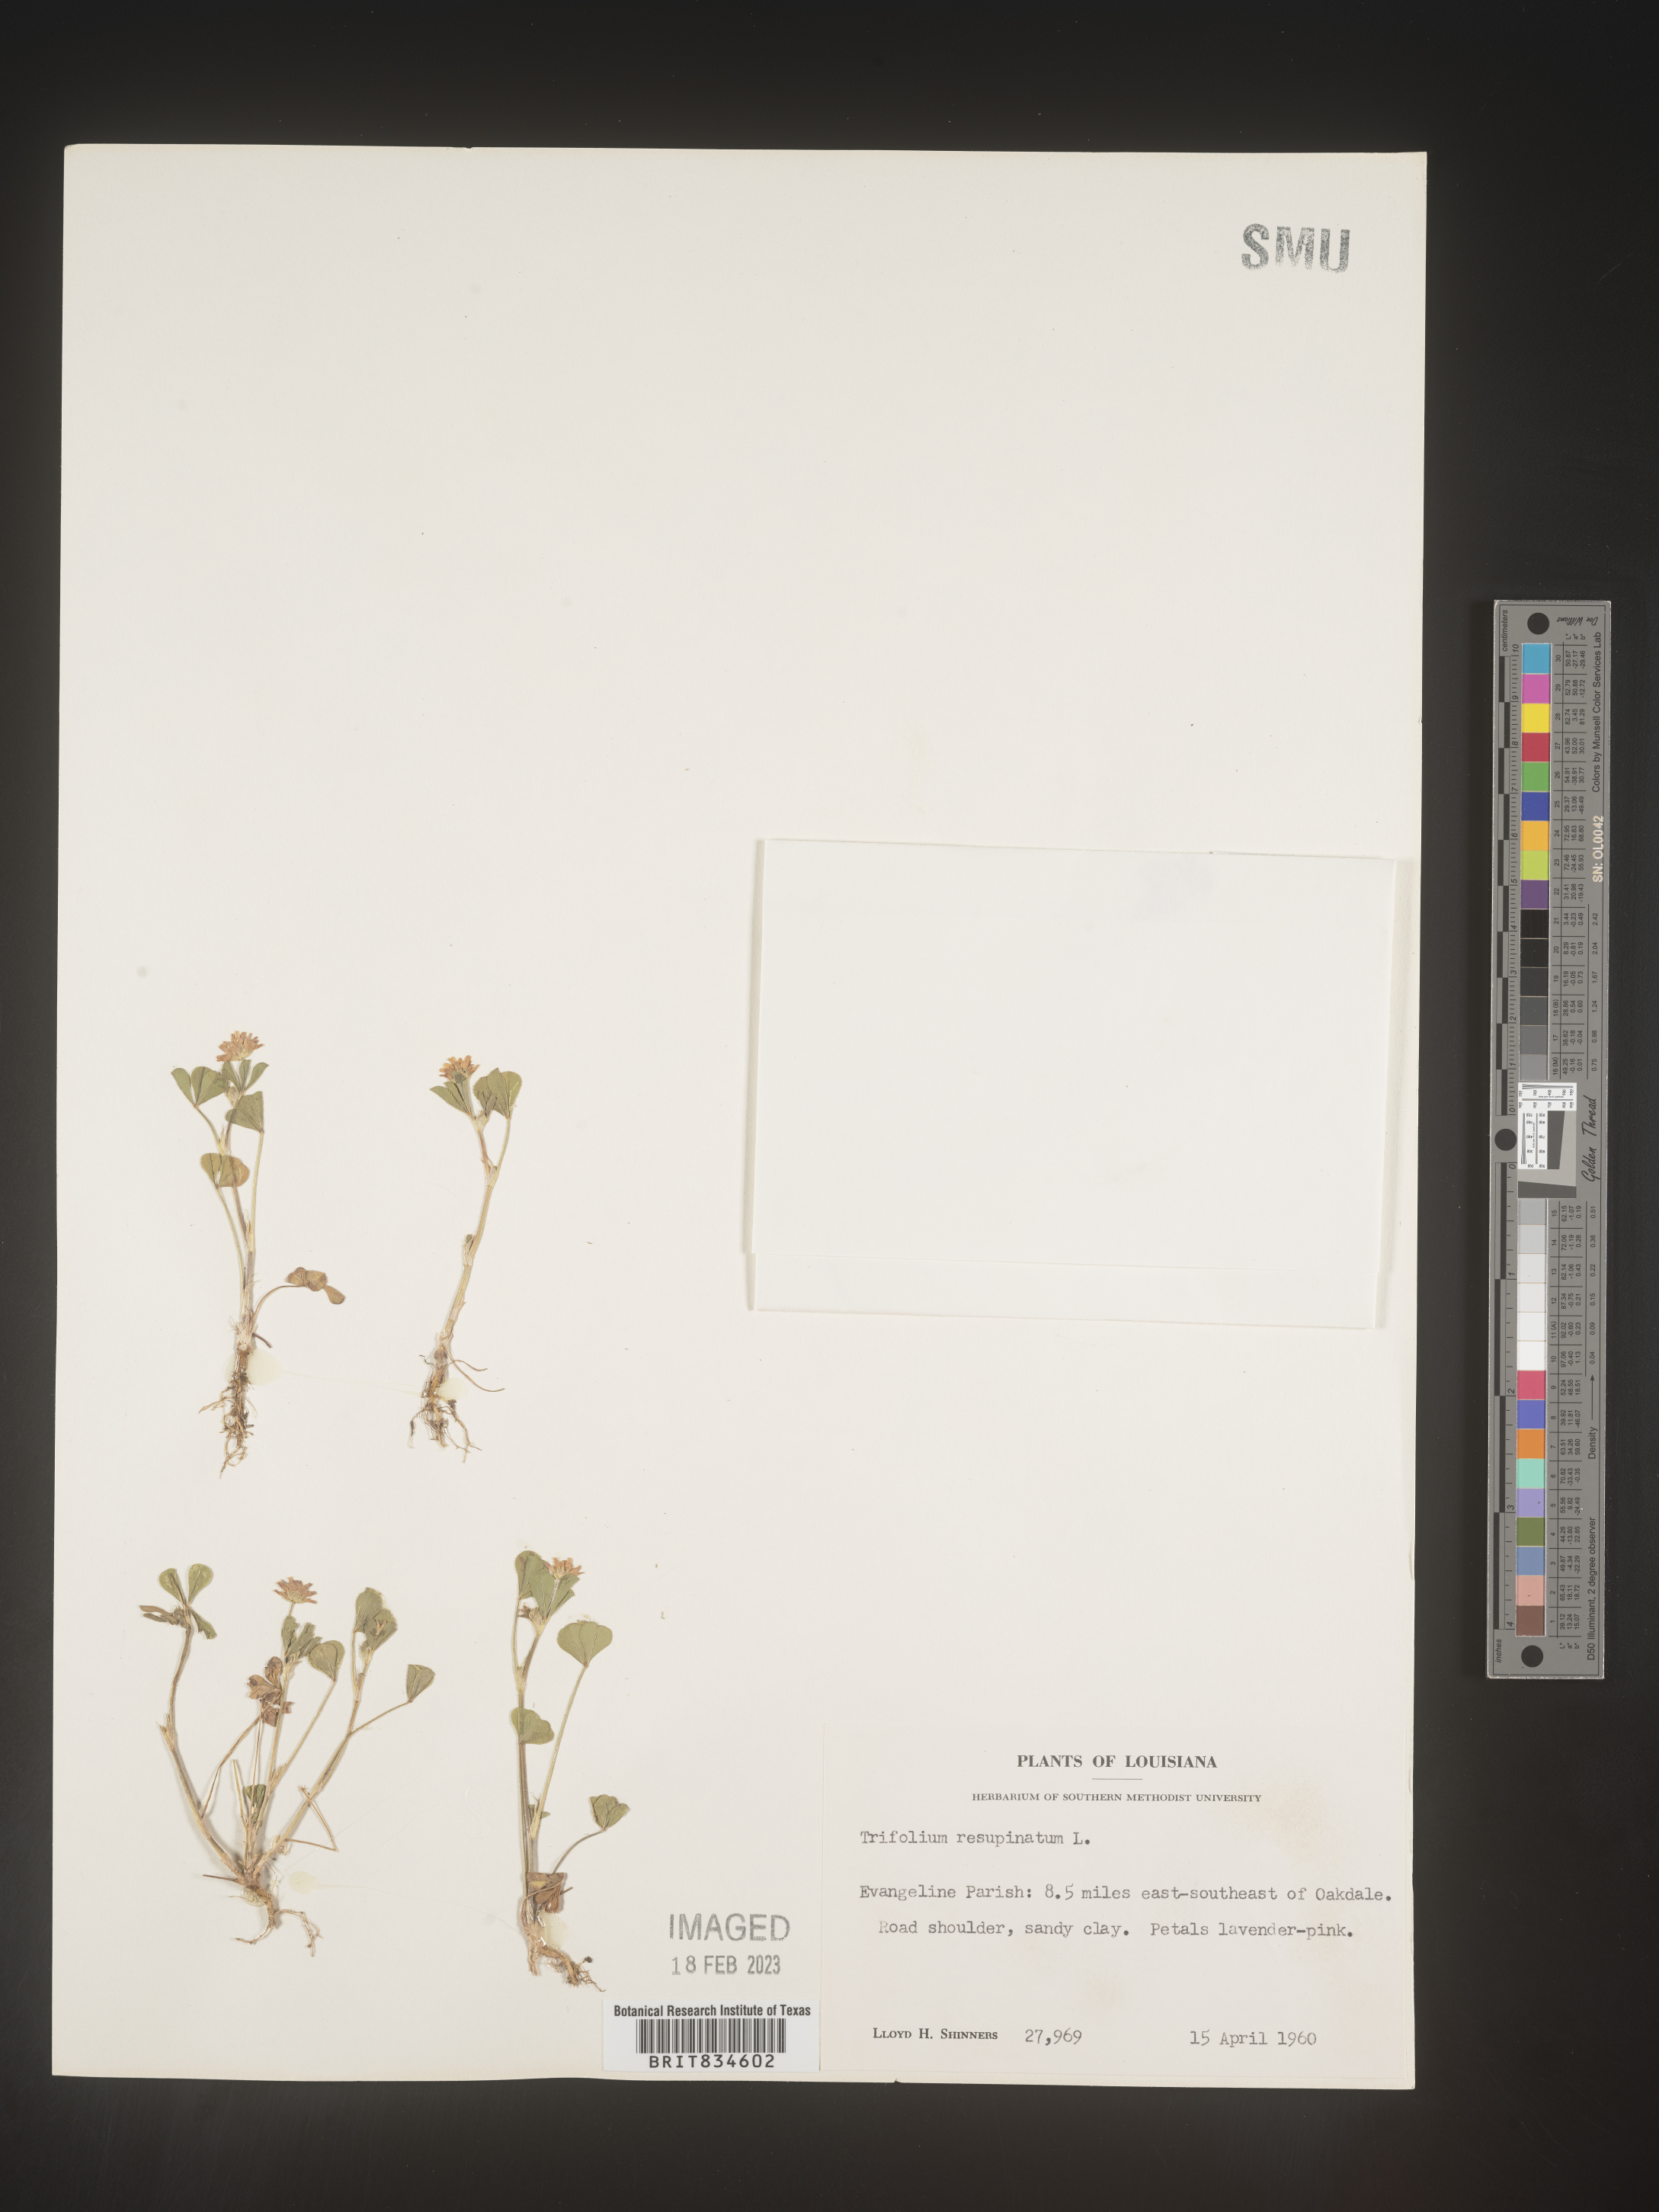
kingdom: Plantae
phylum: Tracheophyta
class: Magnoliopsida
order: Fabales
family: Fabaceae
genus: Trifolium
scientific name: Trifolium resupinatum
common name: Reversed clover
